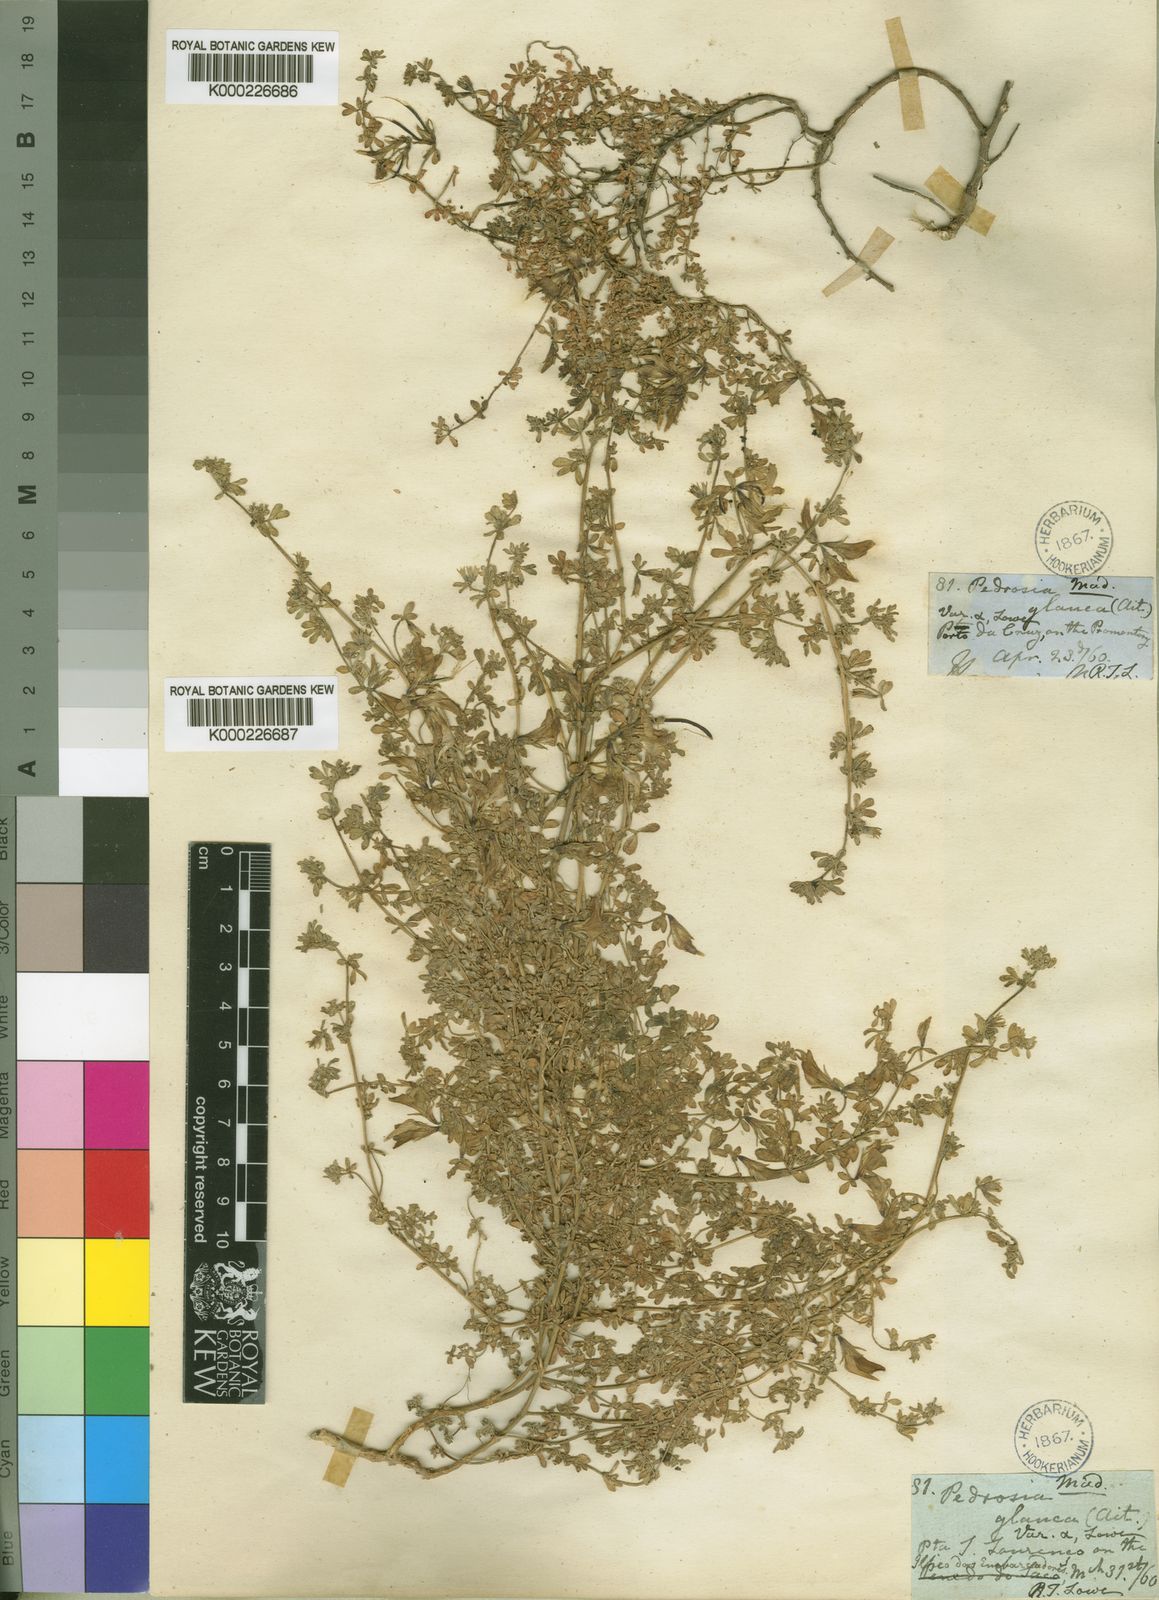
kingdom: Plantae
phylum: Tracheophyta
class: Magnoliopsida
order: Fabales
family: Fabaceae
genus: Lotus
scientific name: Lotus glaucus
